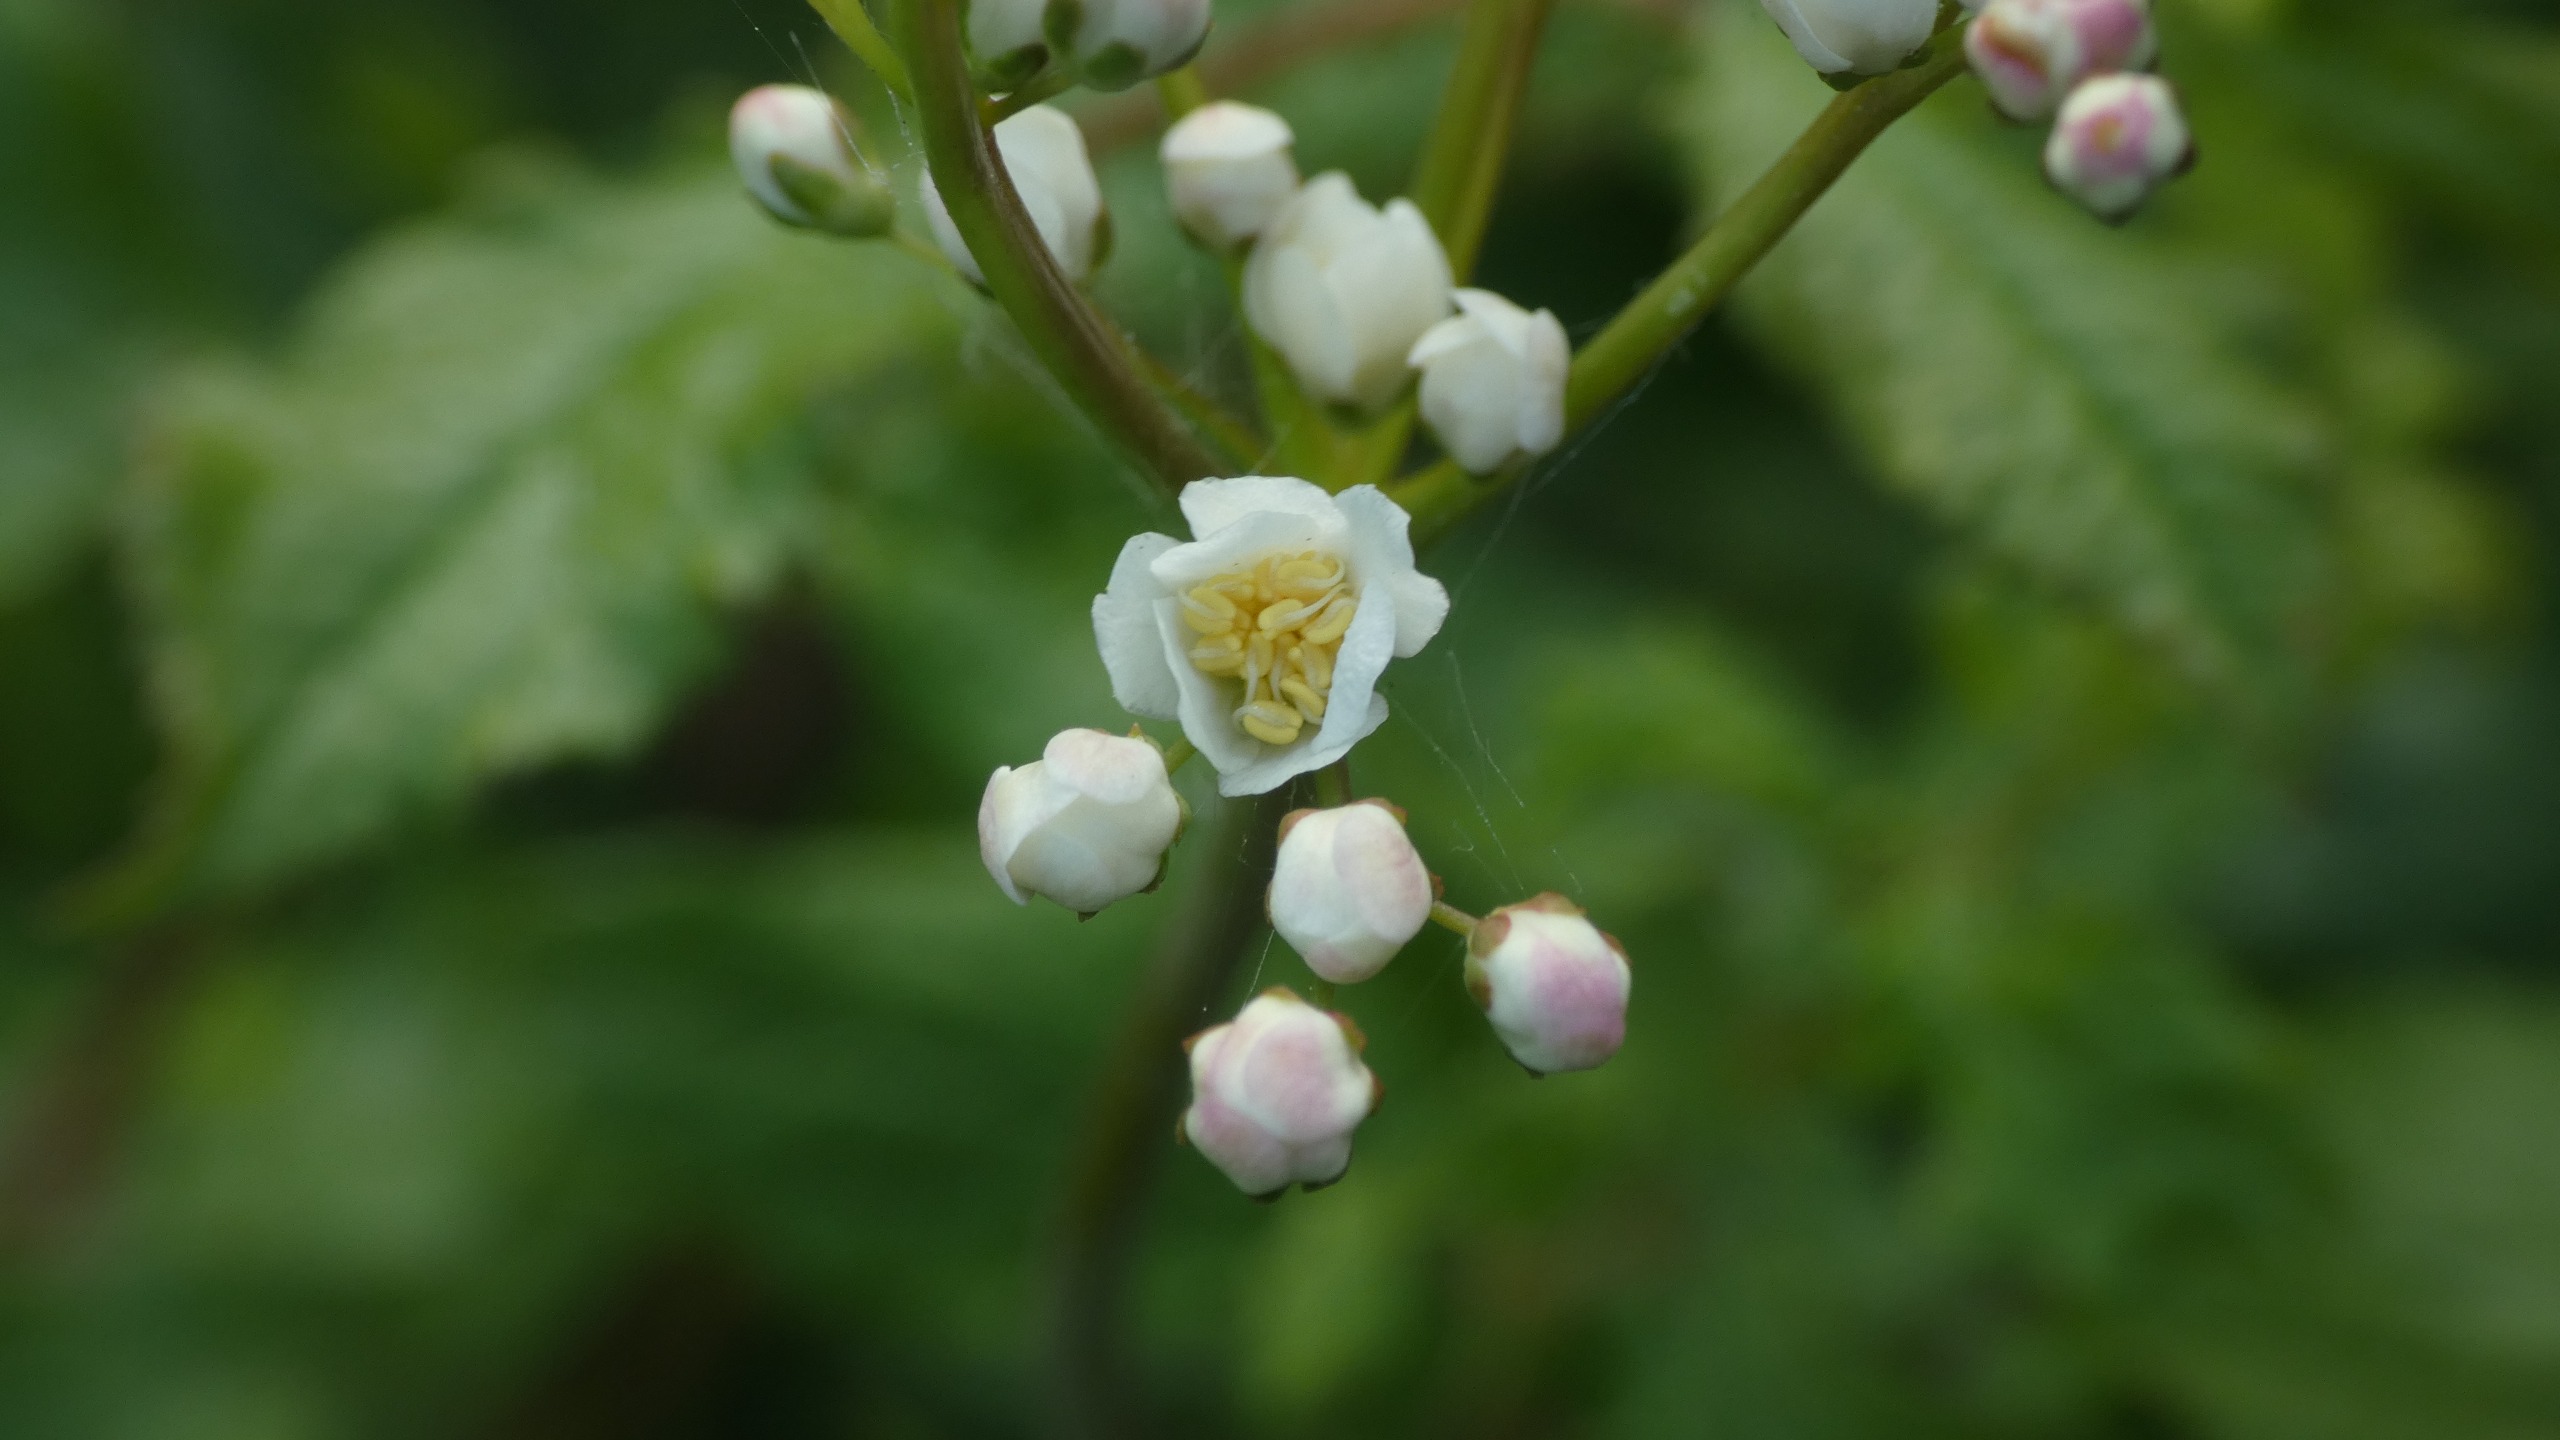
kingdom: Plantae
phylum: Tracheophyta
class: Magnoliopsida
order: Rosales
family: Rosaceae
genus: Filipendula
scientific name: Filipendula vulgaris
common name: Knoldet mjødurt
